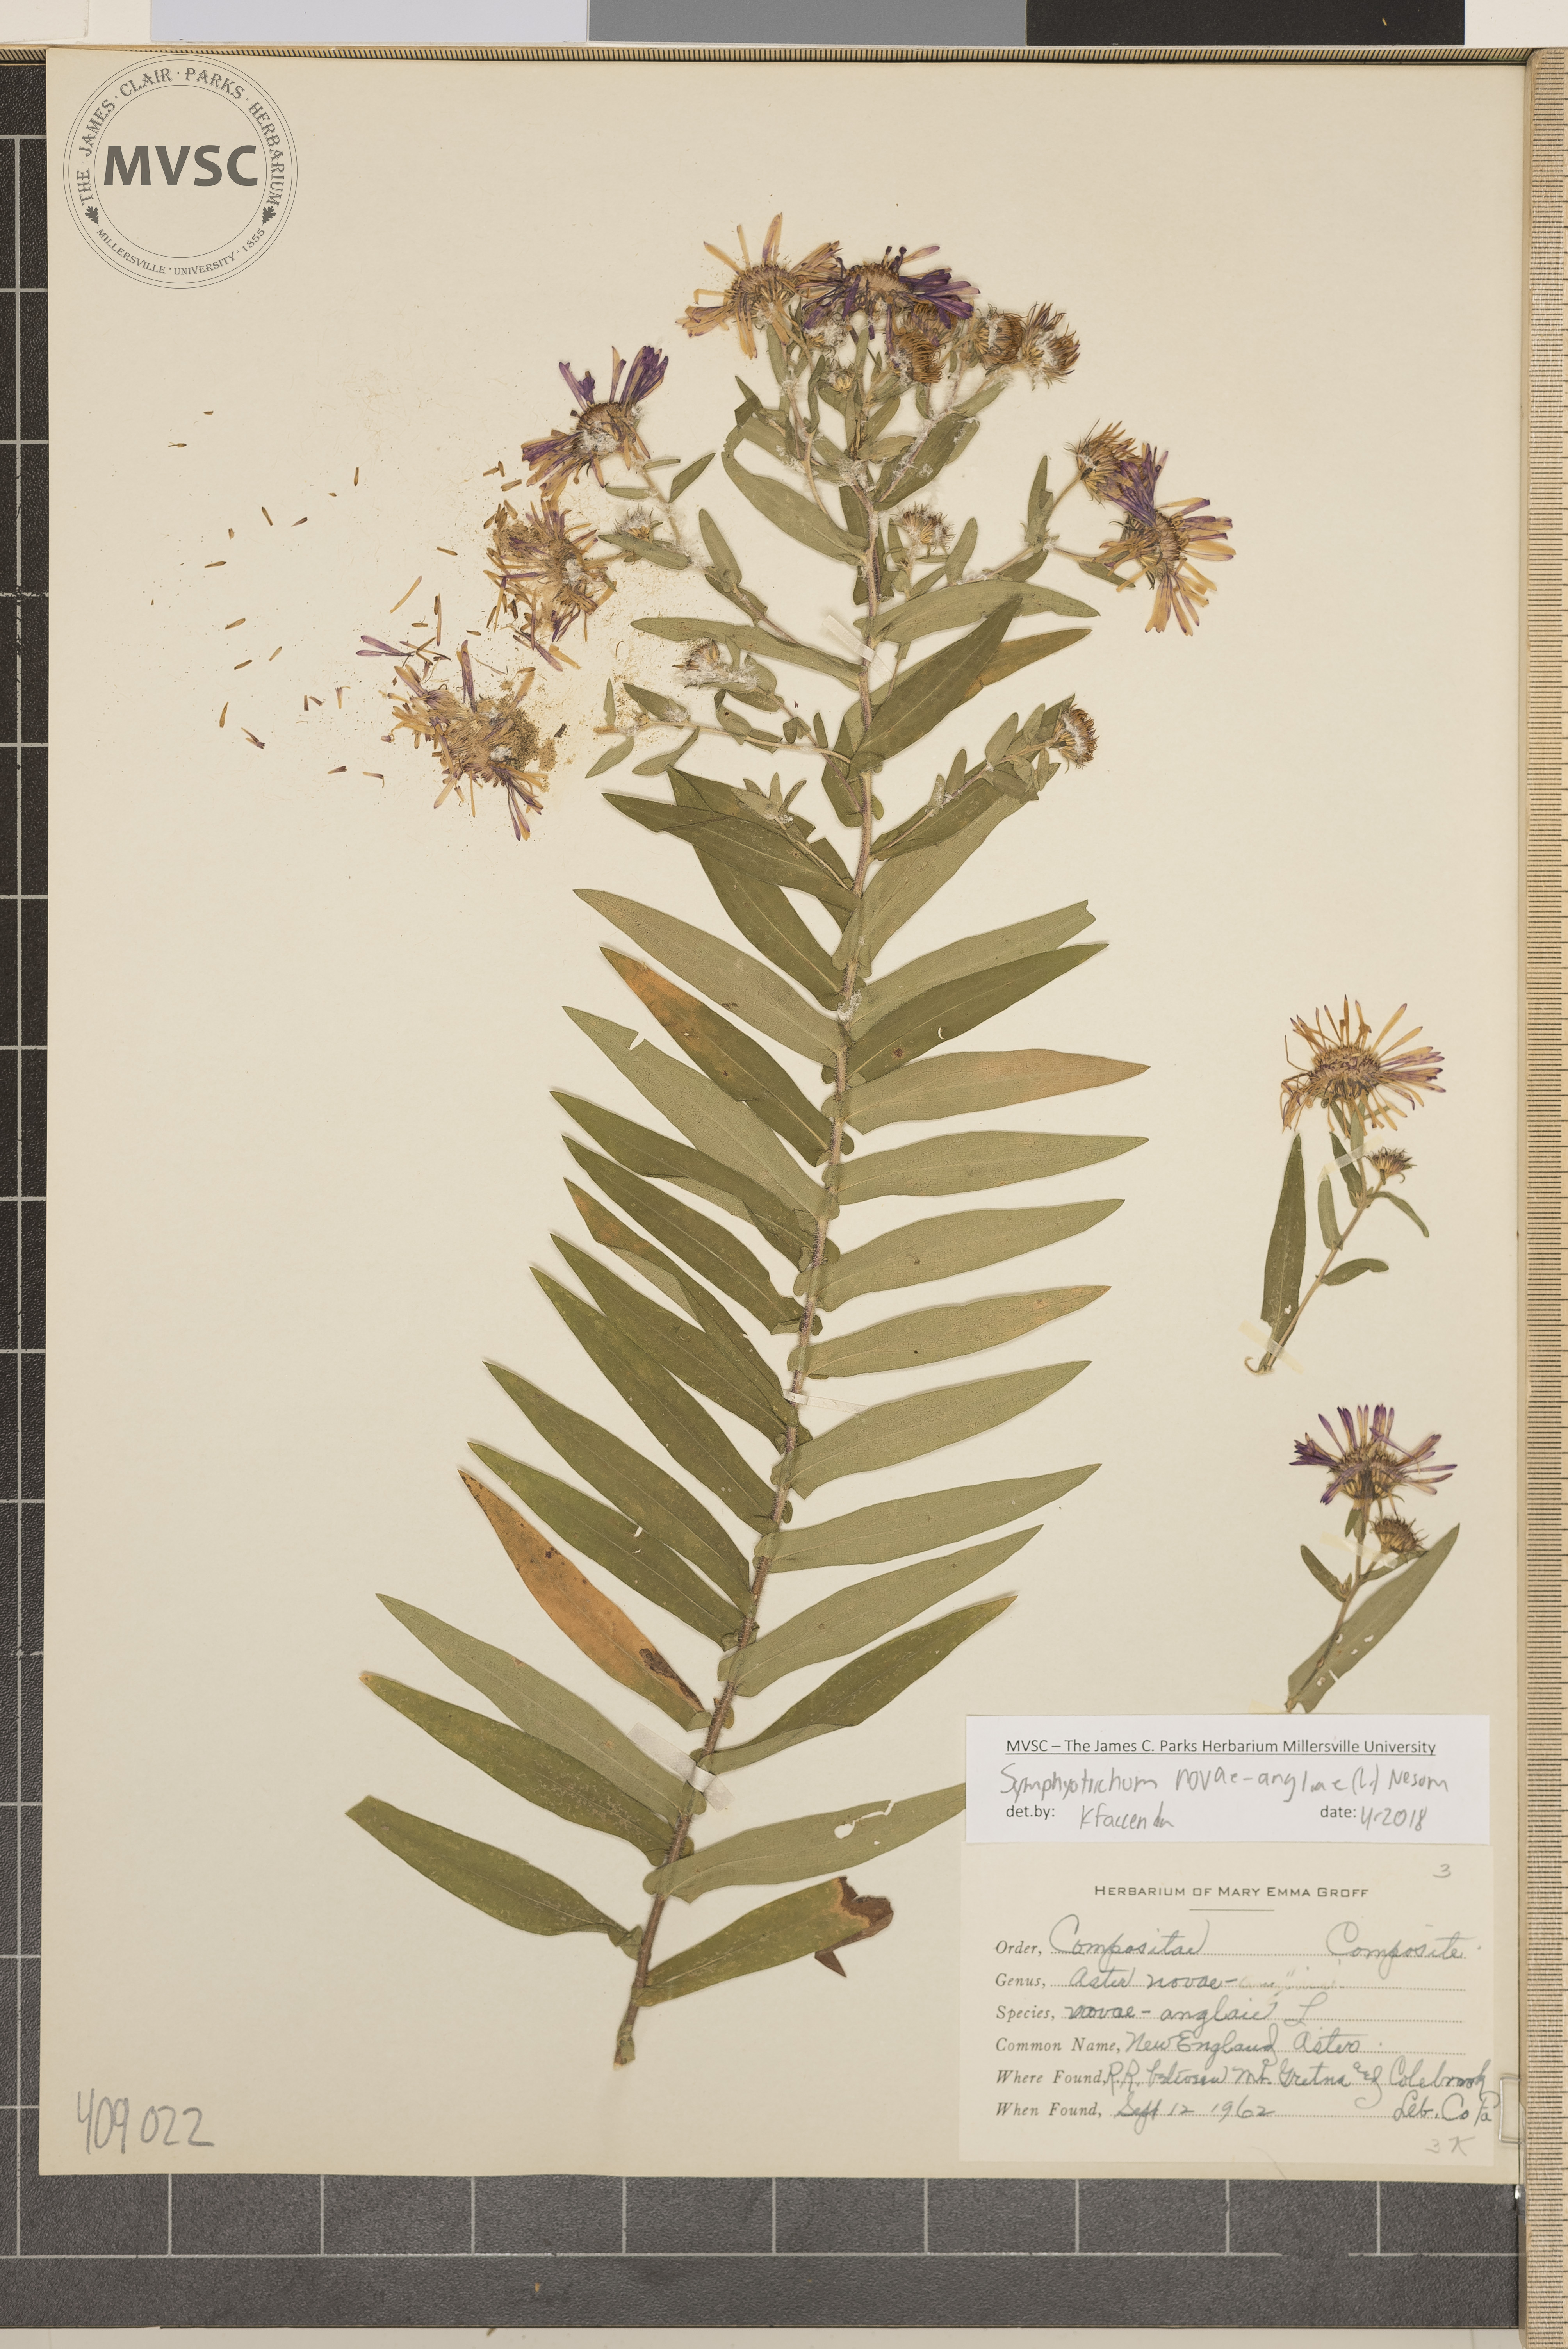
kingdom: Plantae
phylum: Tracheophyta
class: Magnoliopsida
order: Asterales
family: Asteraceae
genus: Symphyotrichum
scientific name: Symphyotrichum novae-angliae
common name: New England Aster
